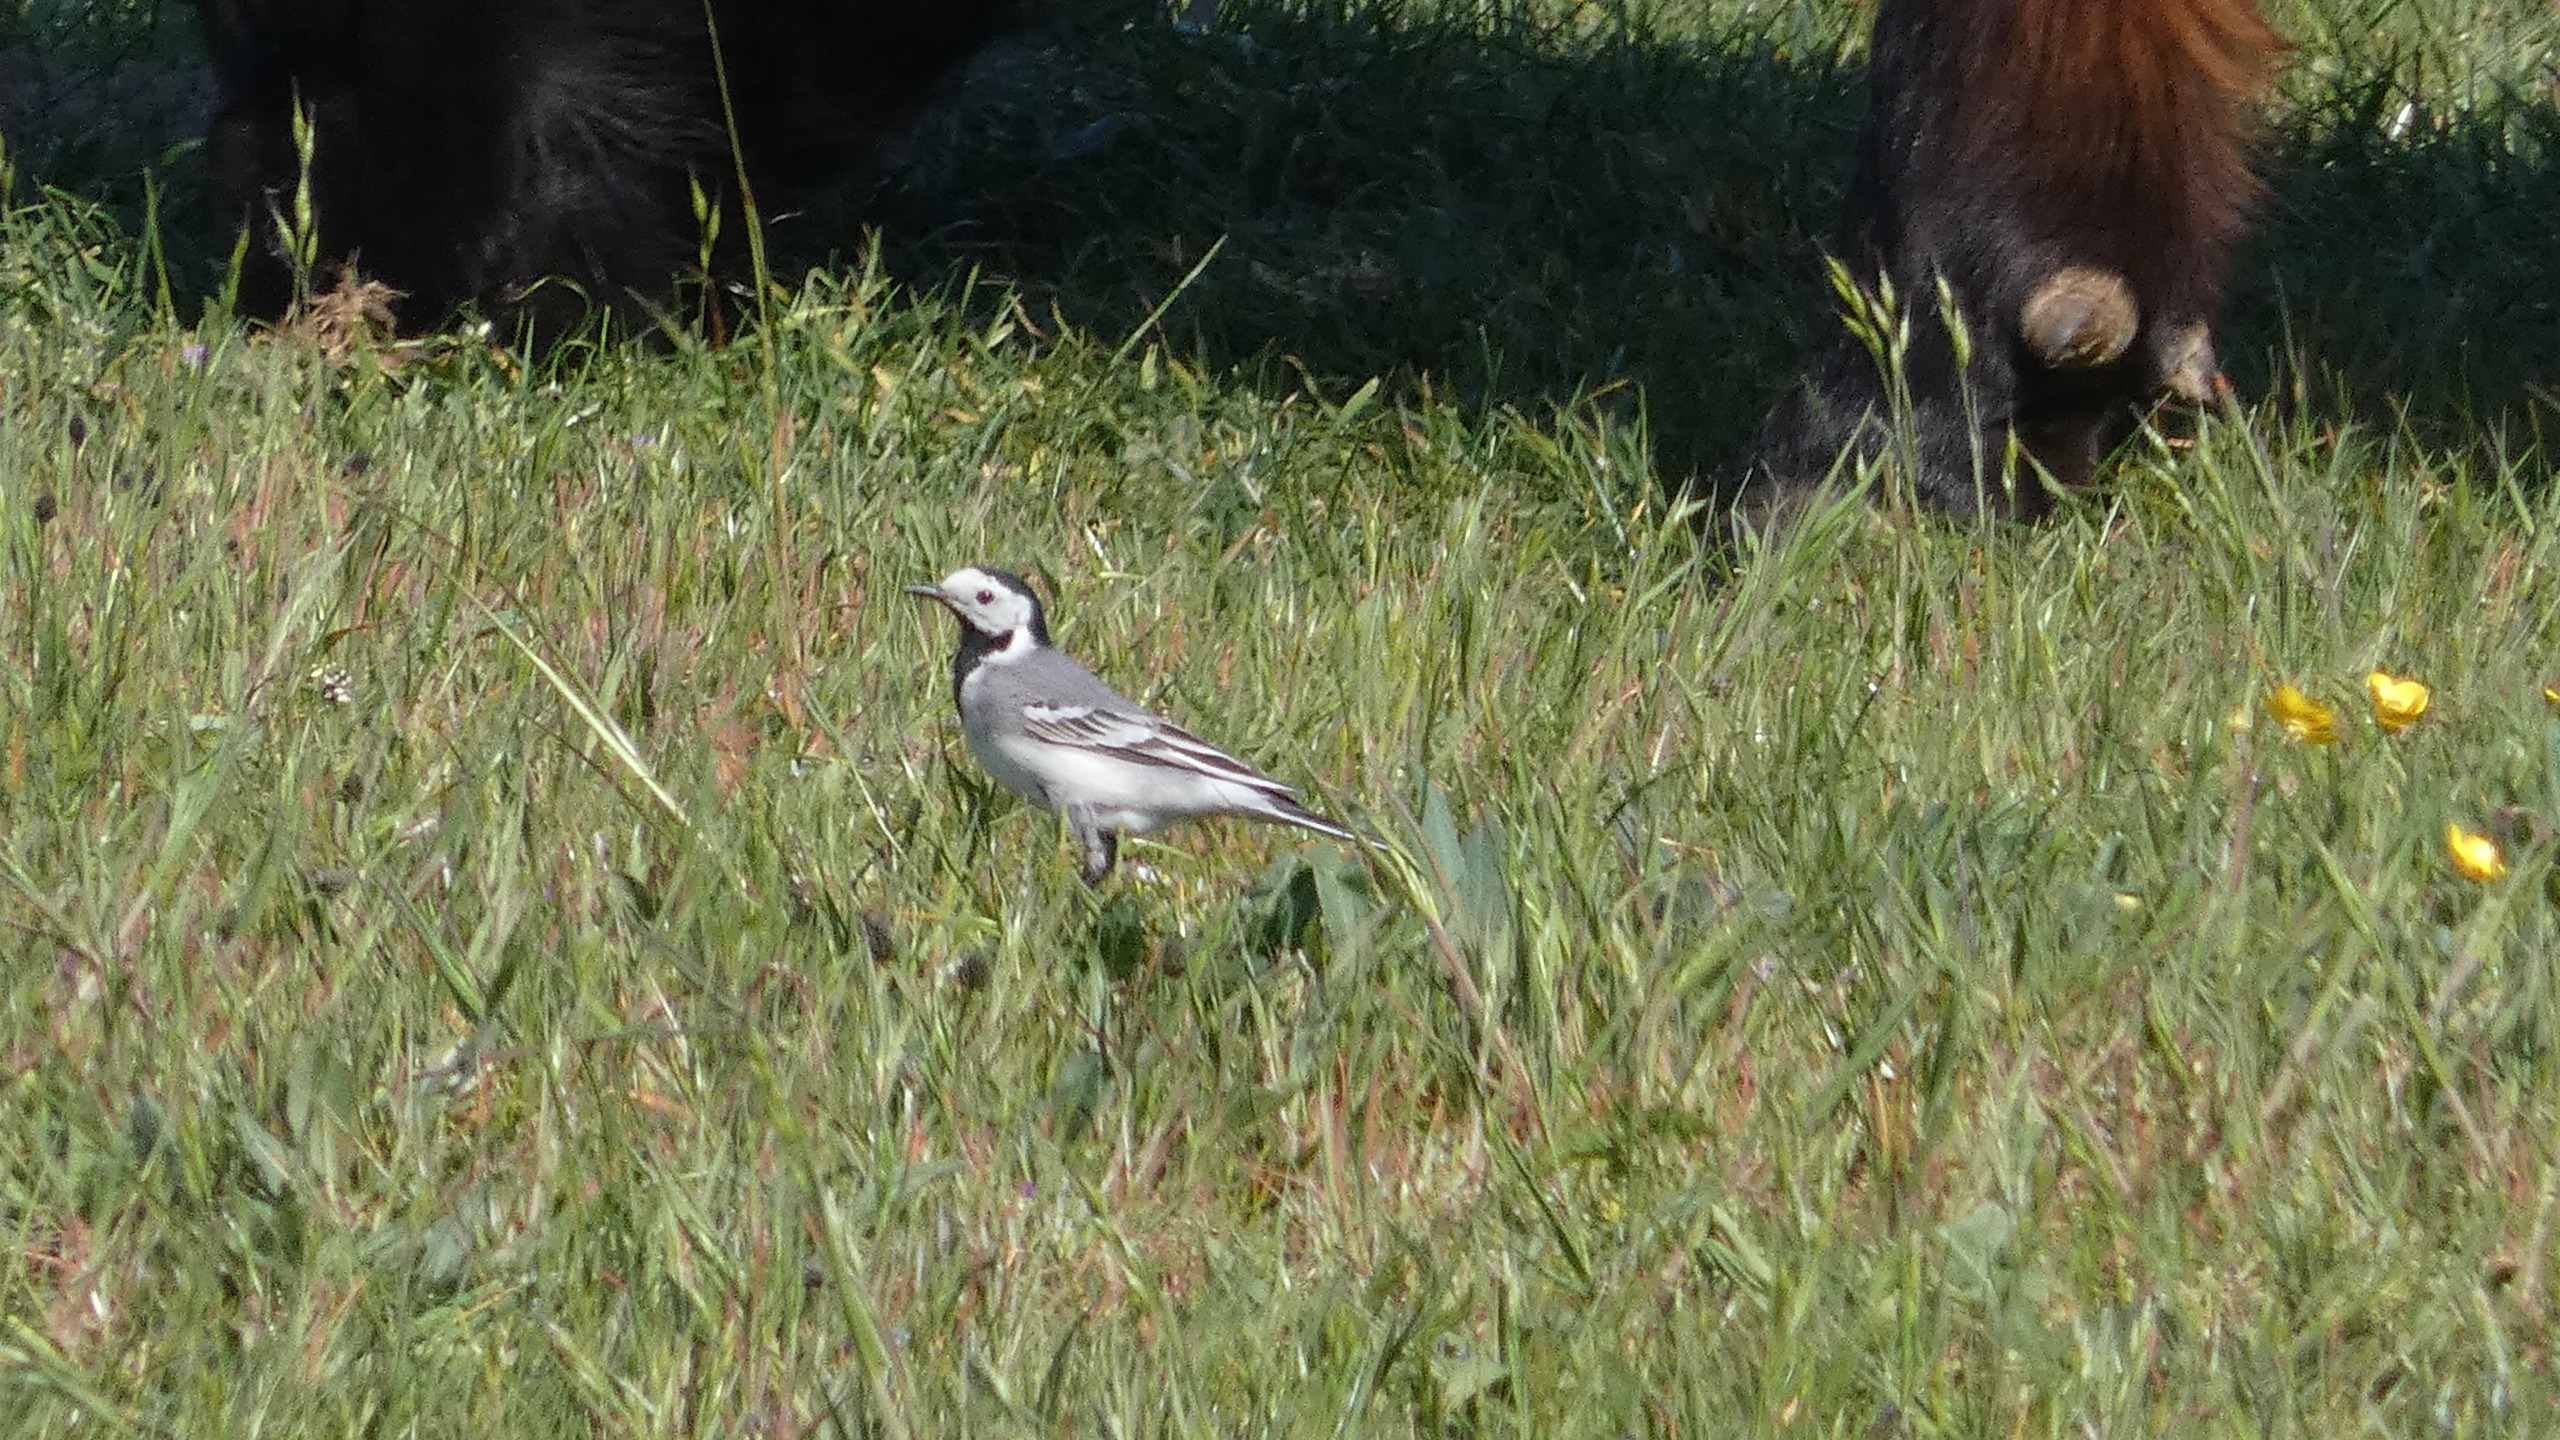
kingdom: Animalia
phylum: Chordata
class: Aves
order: Passeriformes
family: Motacillidae
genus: Motacilla
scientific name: Motacilla alba
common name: Hvid vipstjert
